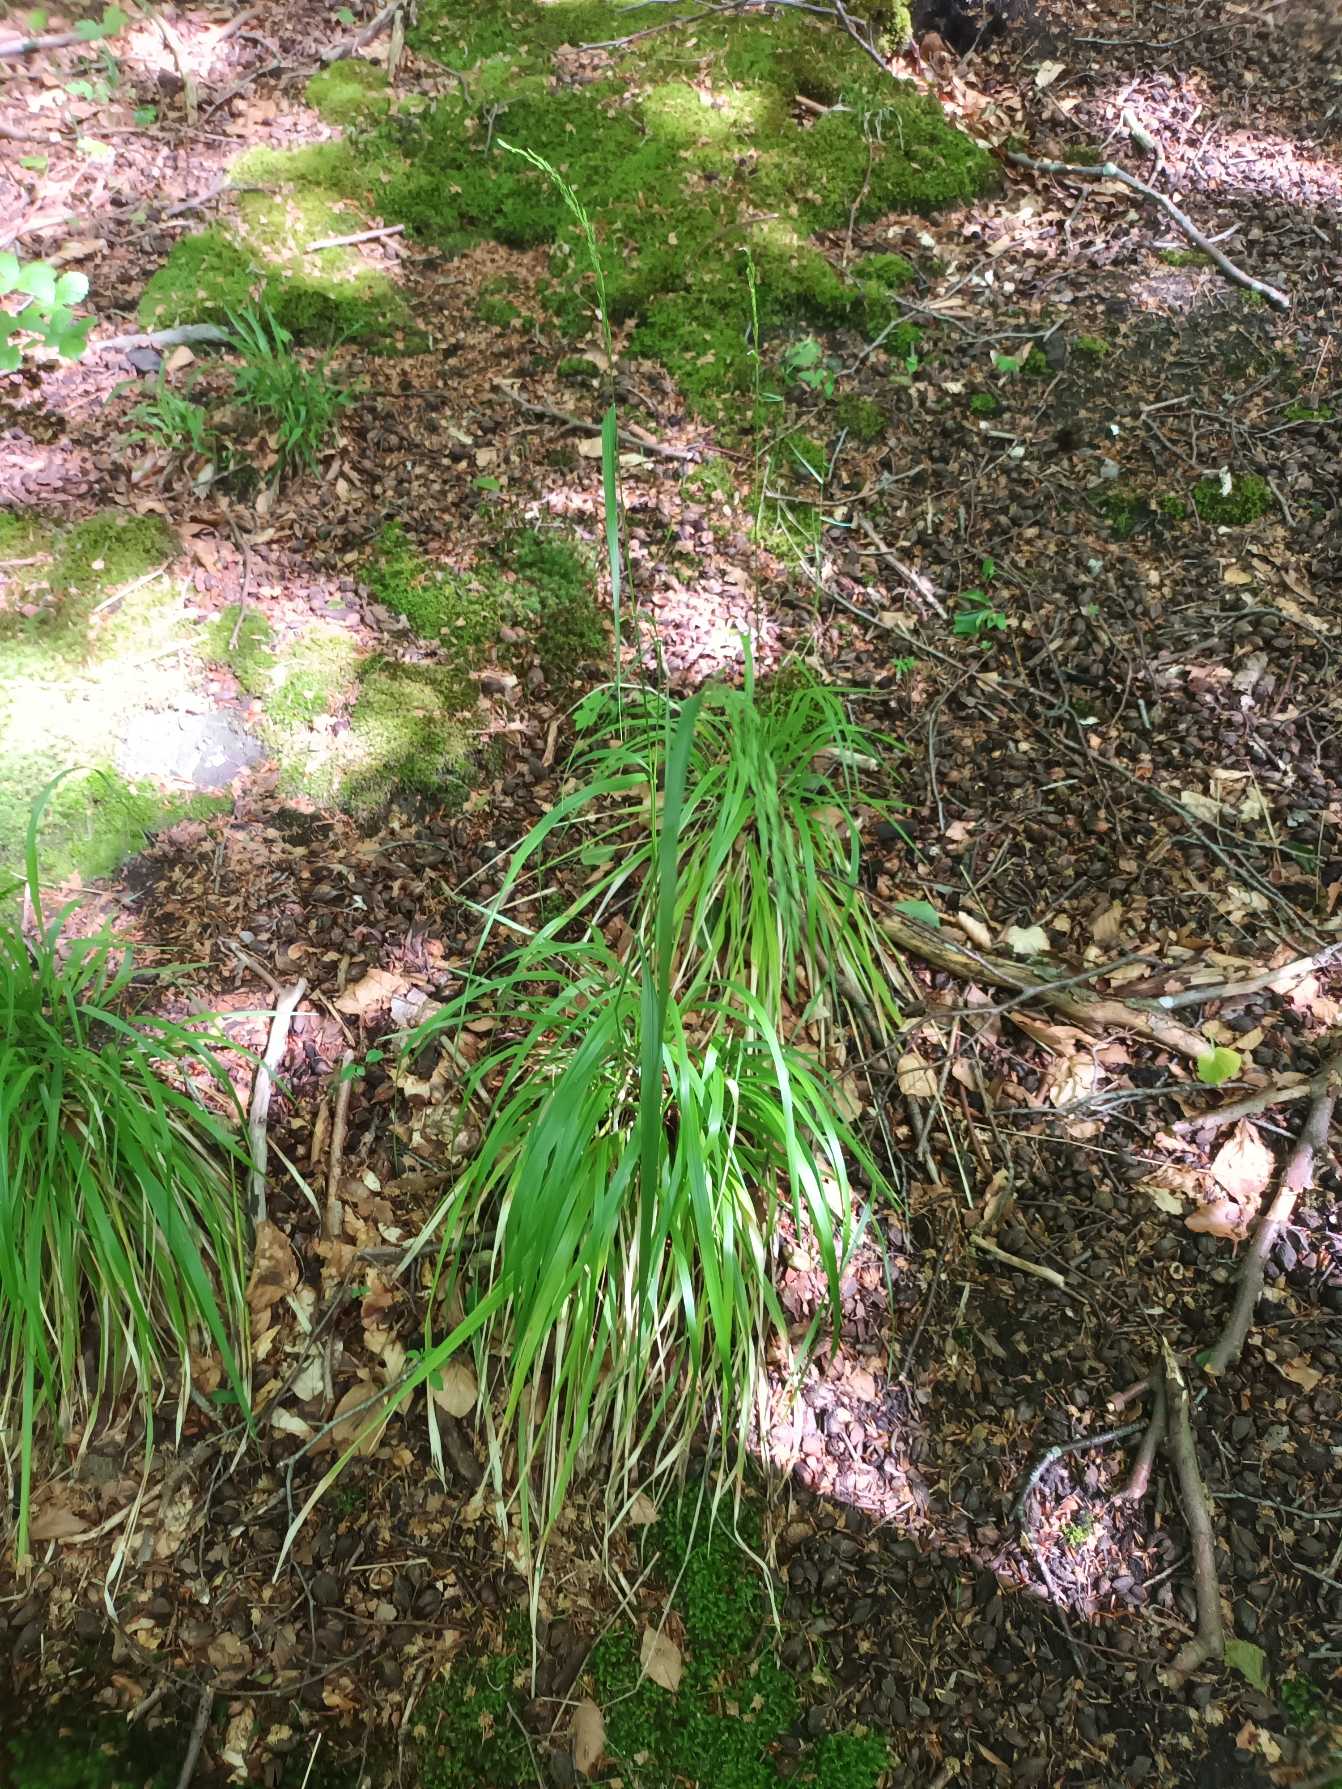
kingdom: Plantae
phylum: Tracheophyta
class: Liliopsida
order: Poales
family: Poaceae
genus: Festuca
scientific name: Festuca altissima
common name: Skov-svingel
